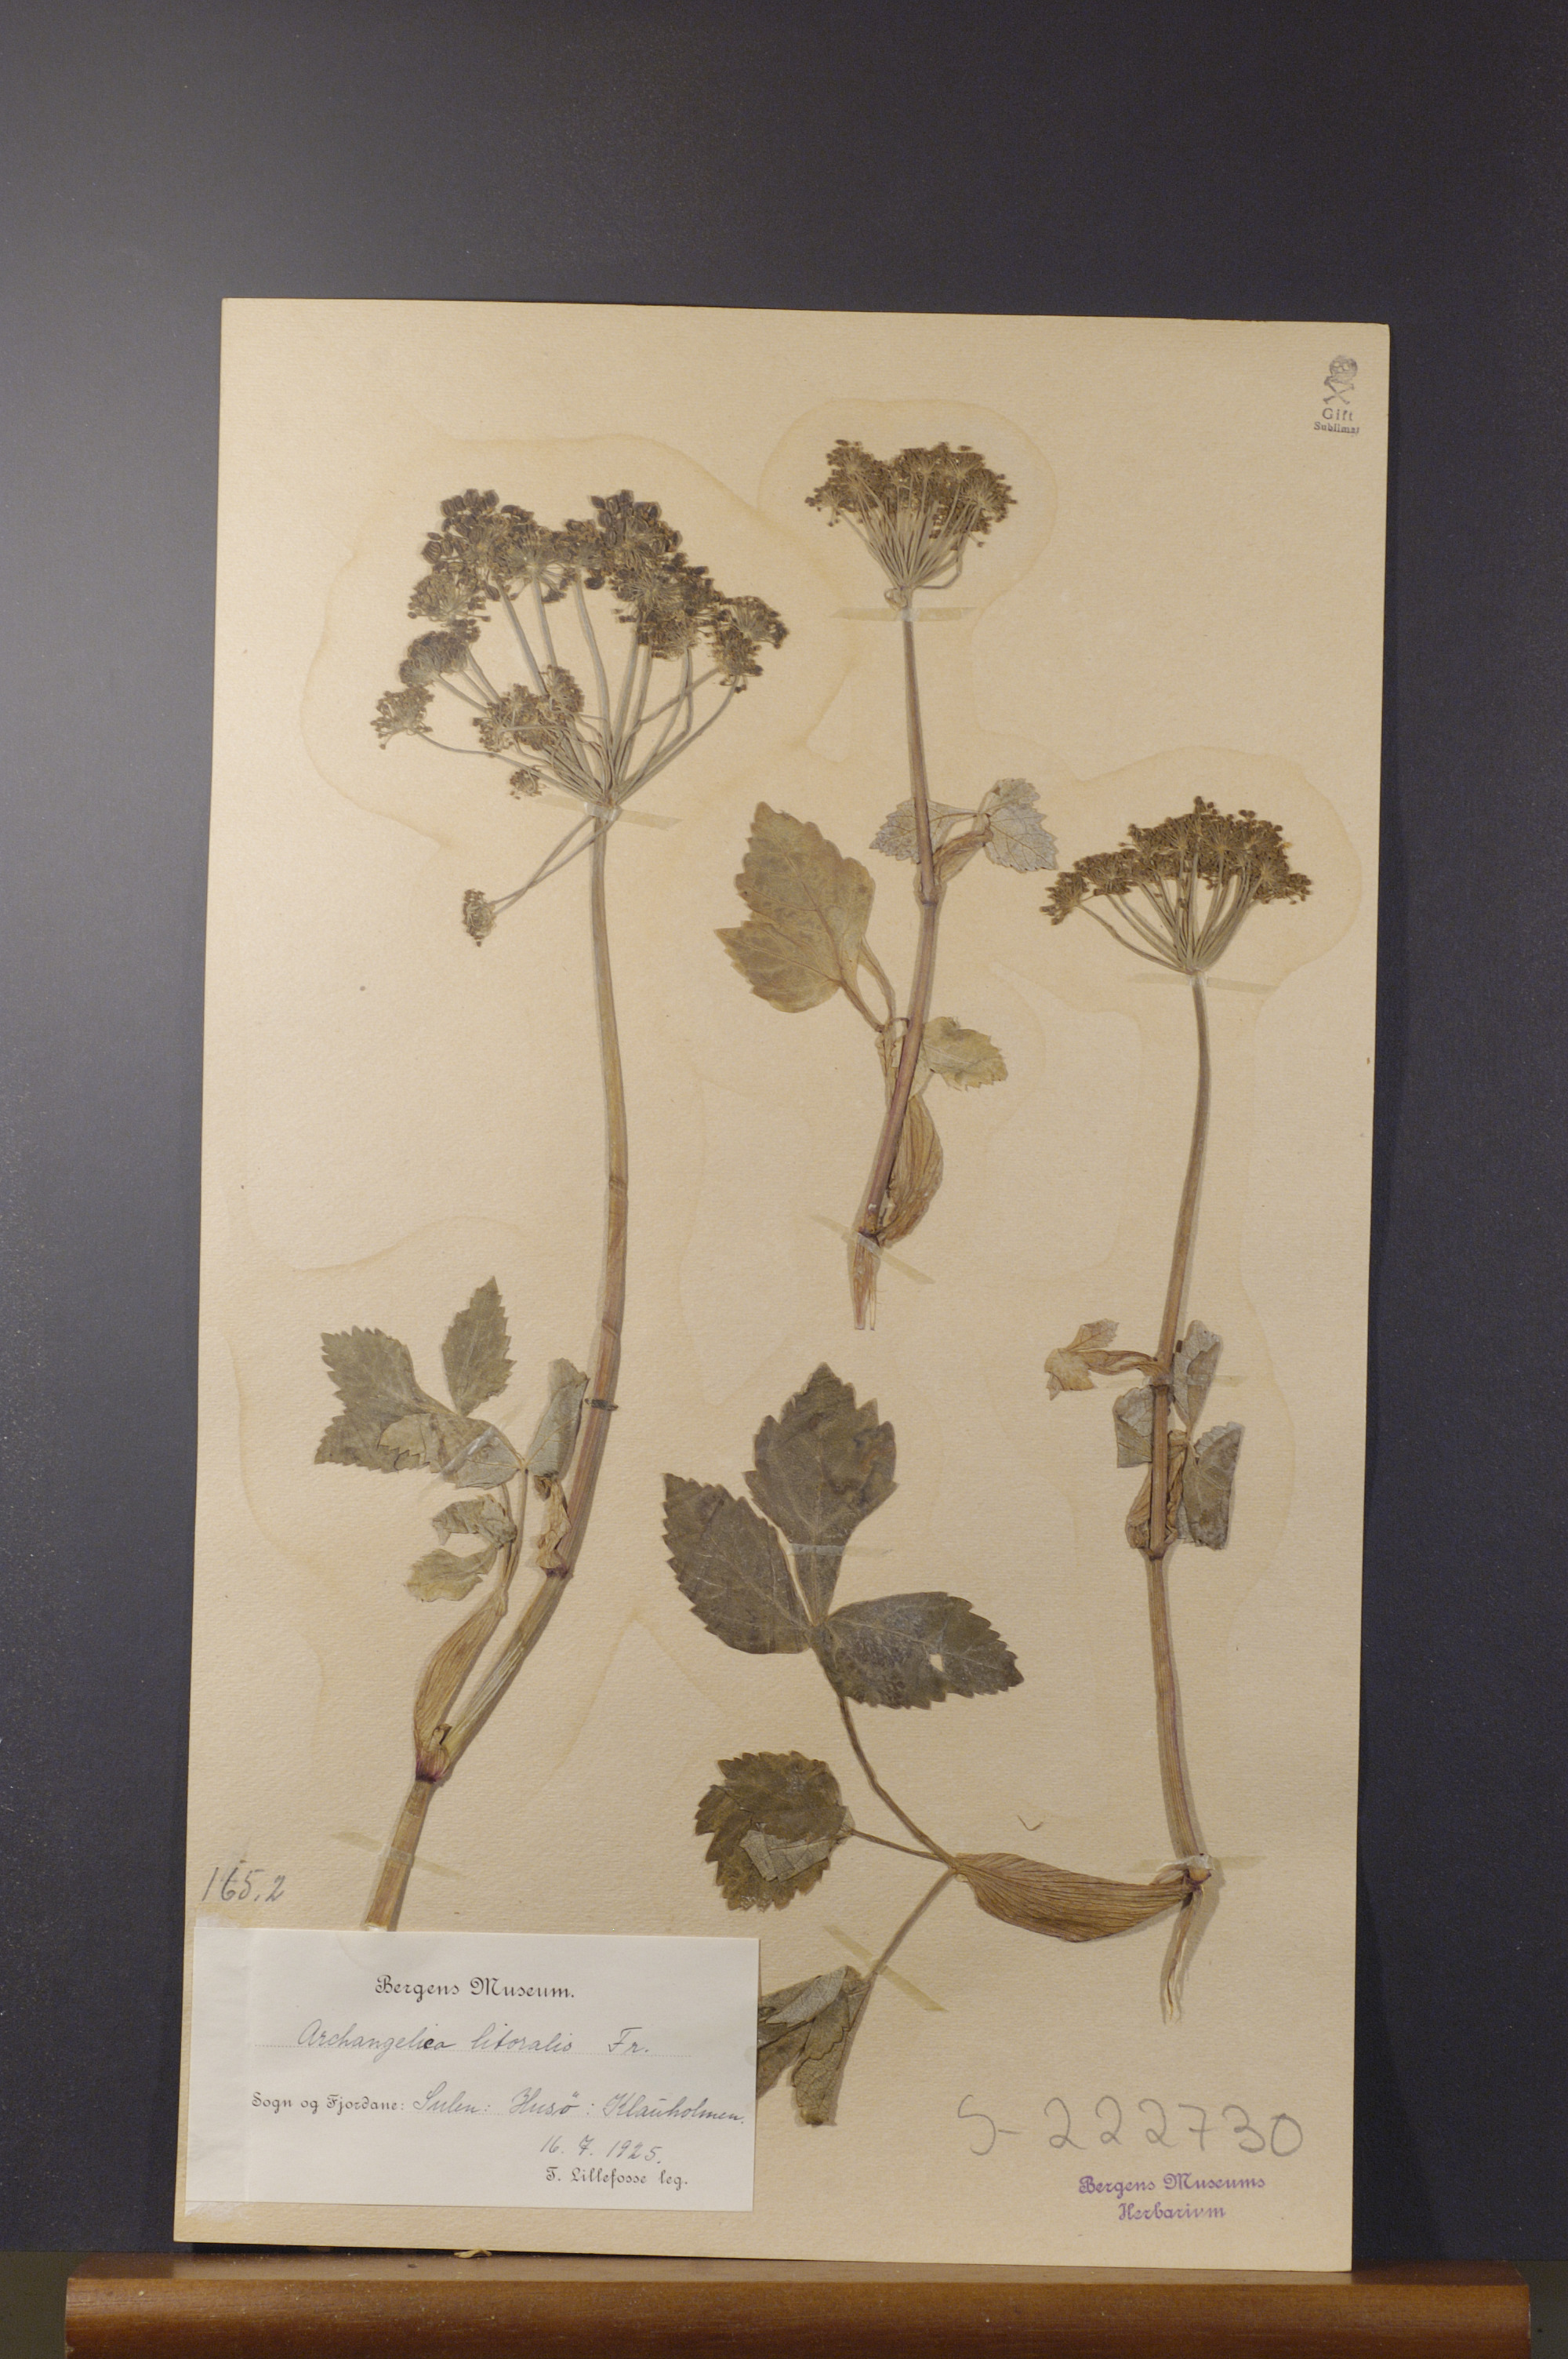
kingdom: Plantae
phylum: Tracheophyta
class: Magnoliopsida
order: Apiales
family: Apiaceae
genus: Angelica
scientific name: Angelica archangelica
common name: Garden angelica
